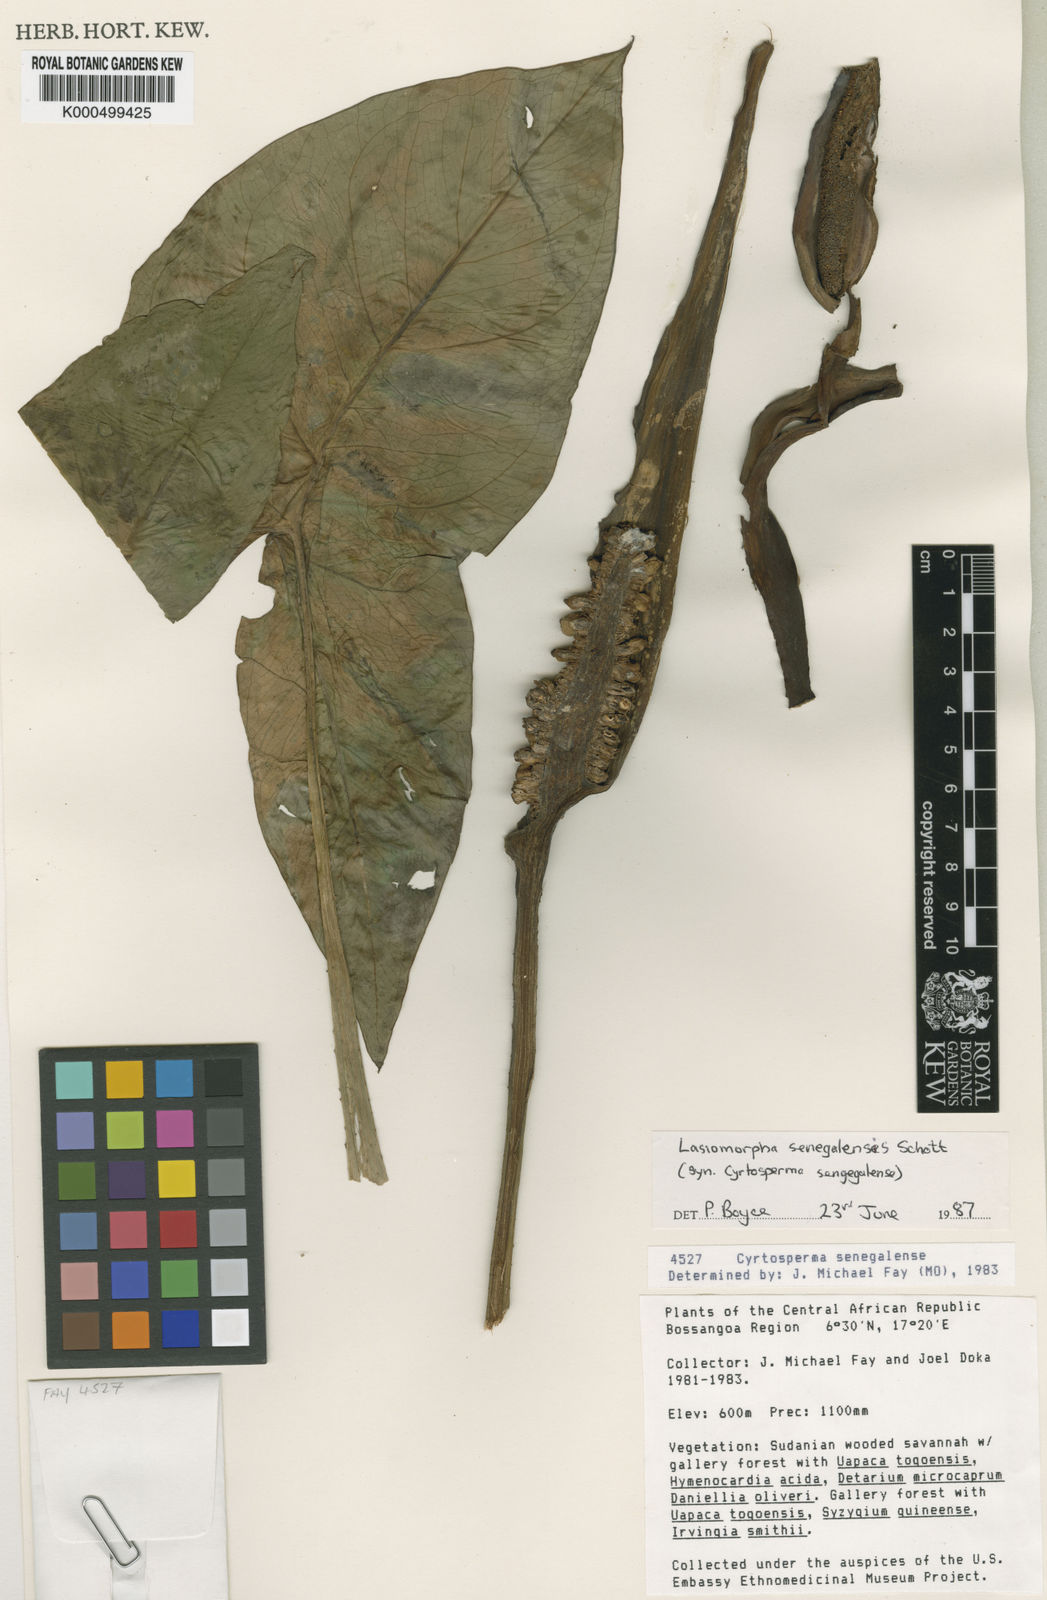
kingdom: Plantae
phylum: Tracheophyta
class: Liliopsida
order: Alismatales
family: Araceae
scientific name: Araceae
